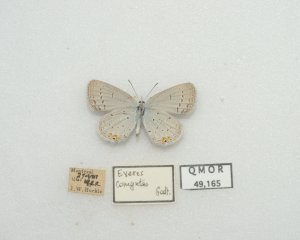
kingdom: Animalia
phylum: Arthropoda
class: Insecta
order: Lepidoptera
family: Lycaenidae
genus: Elkalyce
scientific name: Elkalyce comyntas
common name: Eastern Tailed-Blue
